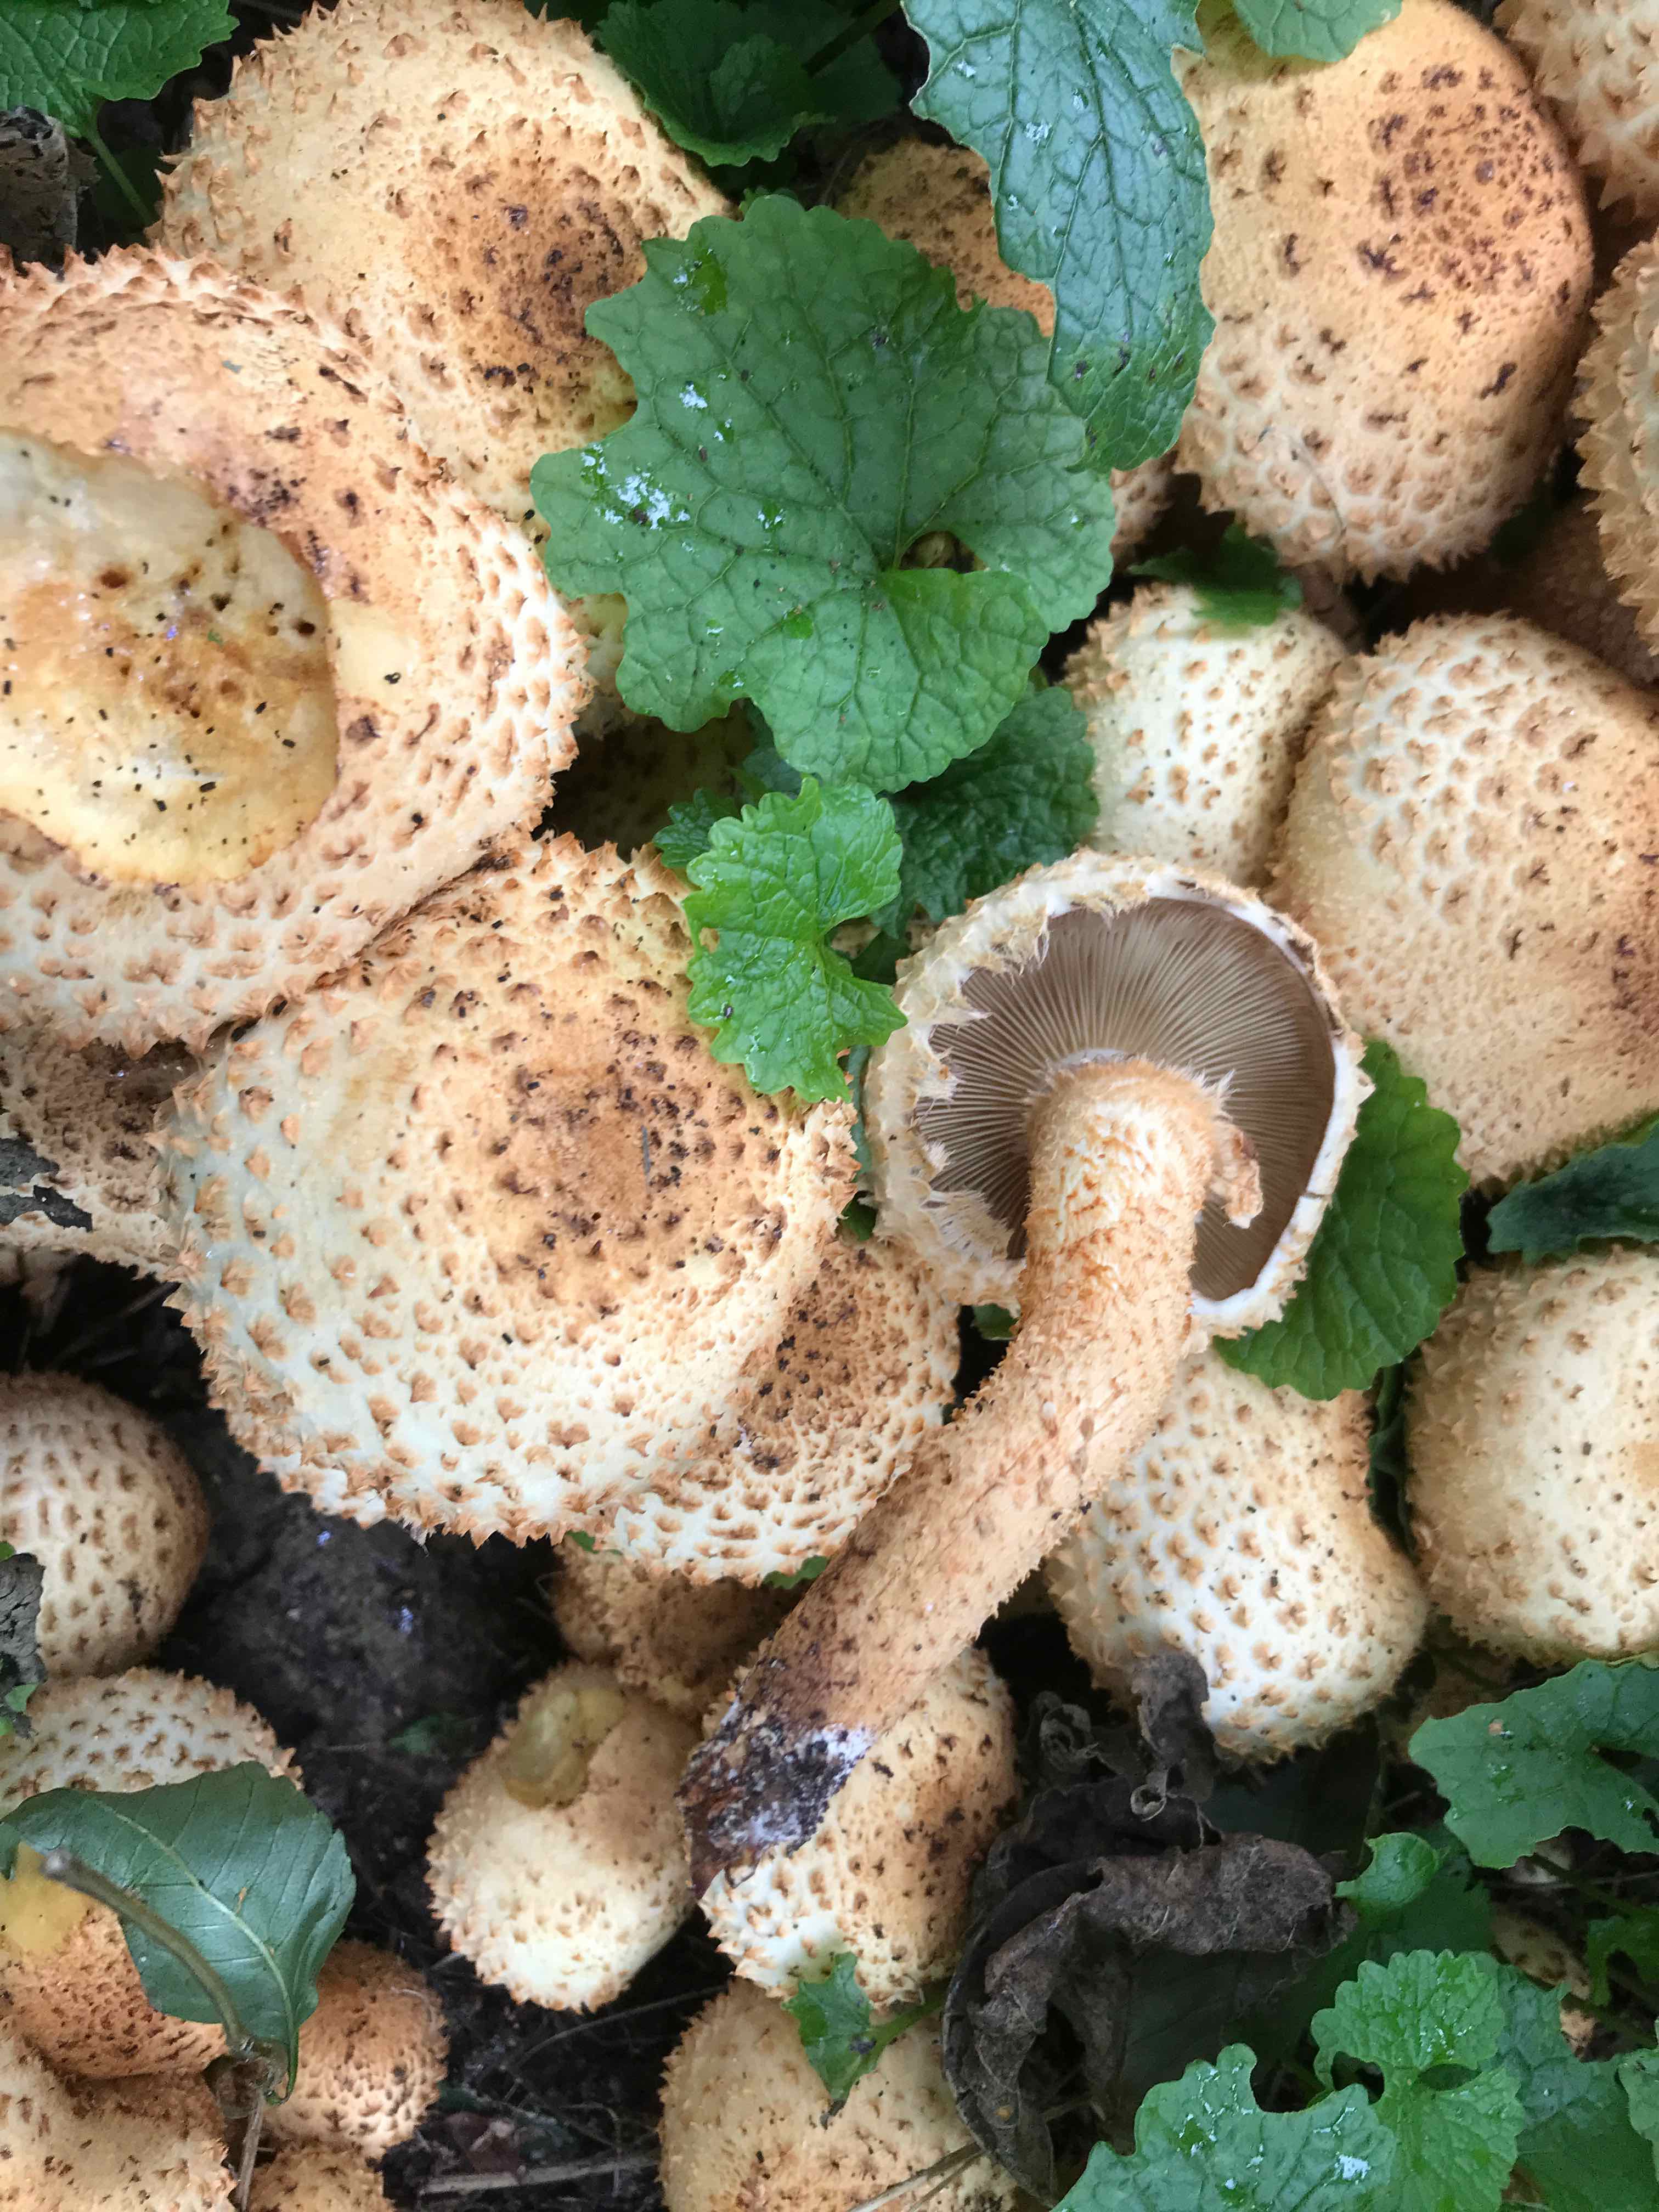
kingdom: Fungi
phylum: Basidiomycota
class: Agaricomycetes
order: Agaricales
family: Strophariaceae
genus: Pholiota
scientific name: Pholiota squarrosa
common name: krumskællet skælhat
